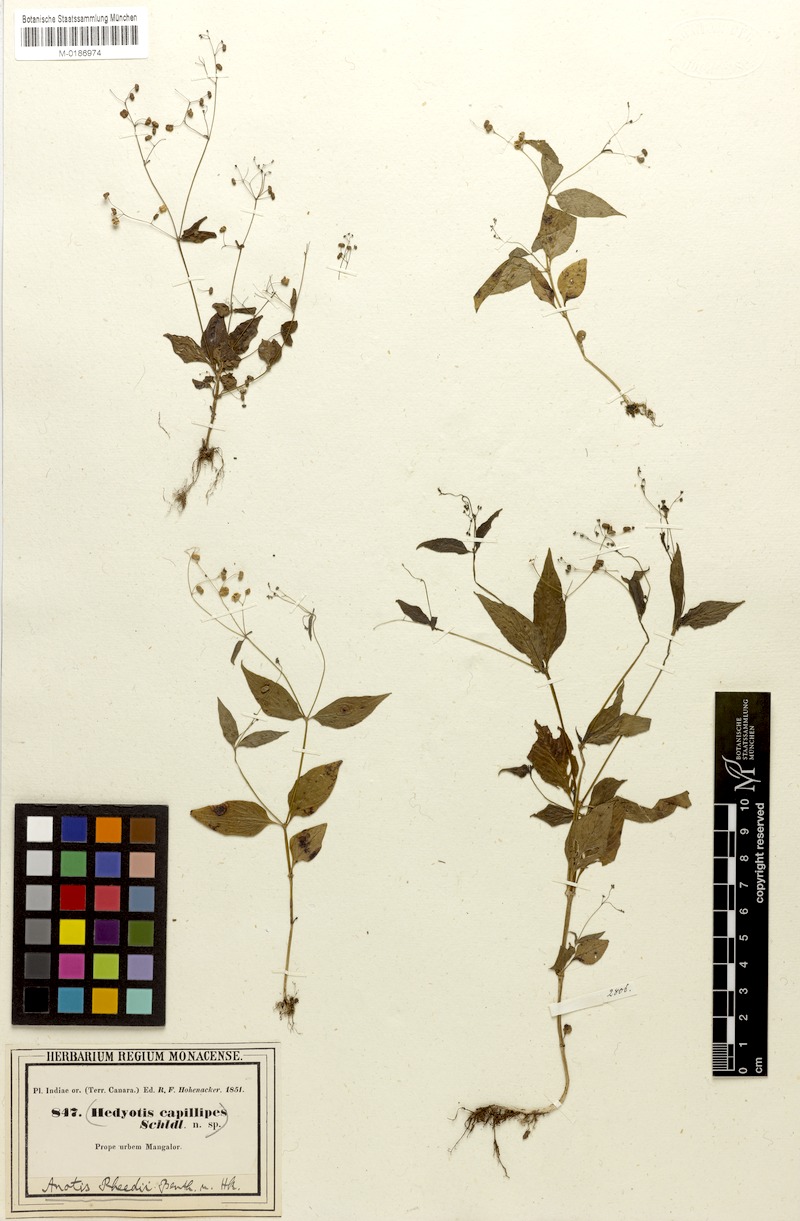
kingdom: Plantae
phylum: Tracheophyta
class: Magnoliopsida
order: Gentianales
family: Rubiaceae
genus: Neanotis
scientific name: Neanotis rheedei
